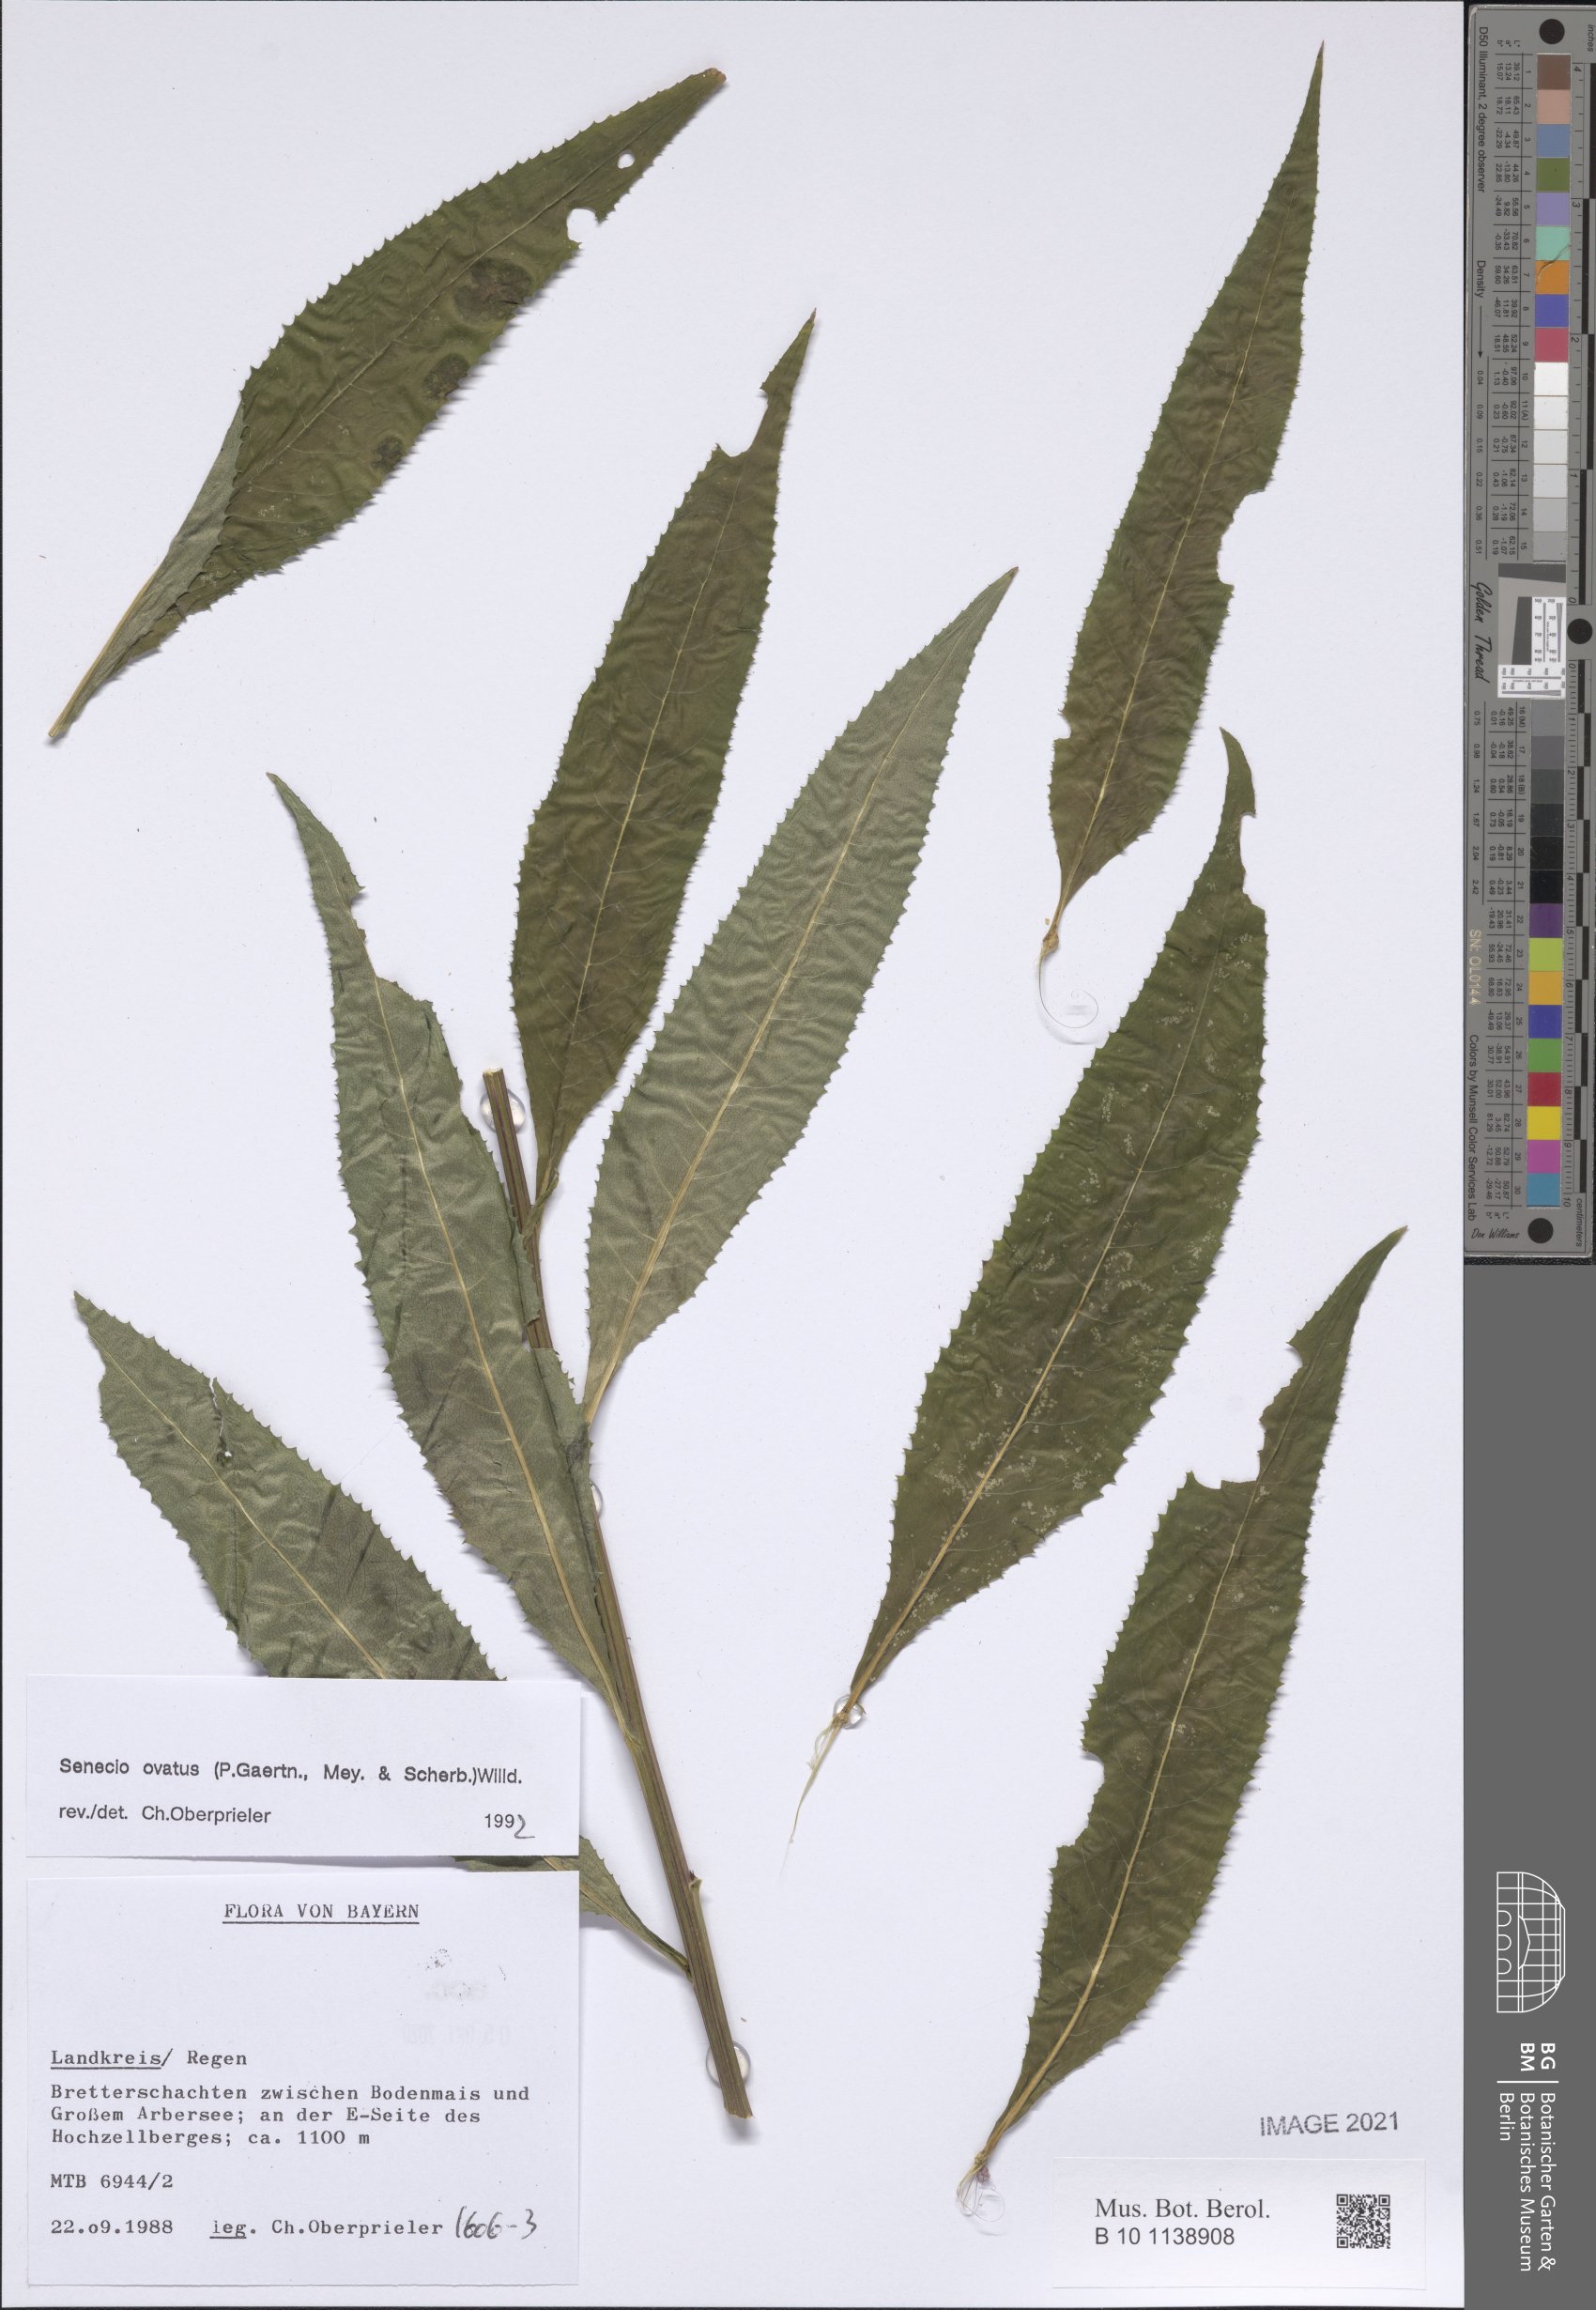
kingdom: Plantae
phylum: Tracheophyta
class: Magnoliopsida
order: Asterales
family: Asteraceae
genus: Senecio
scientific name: Senecio ovatus
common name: Wood ragwort
